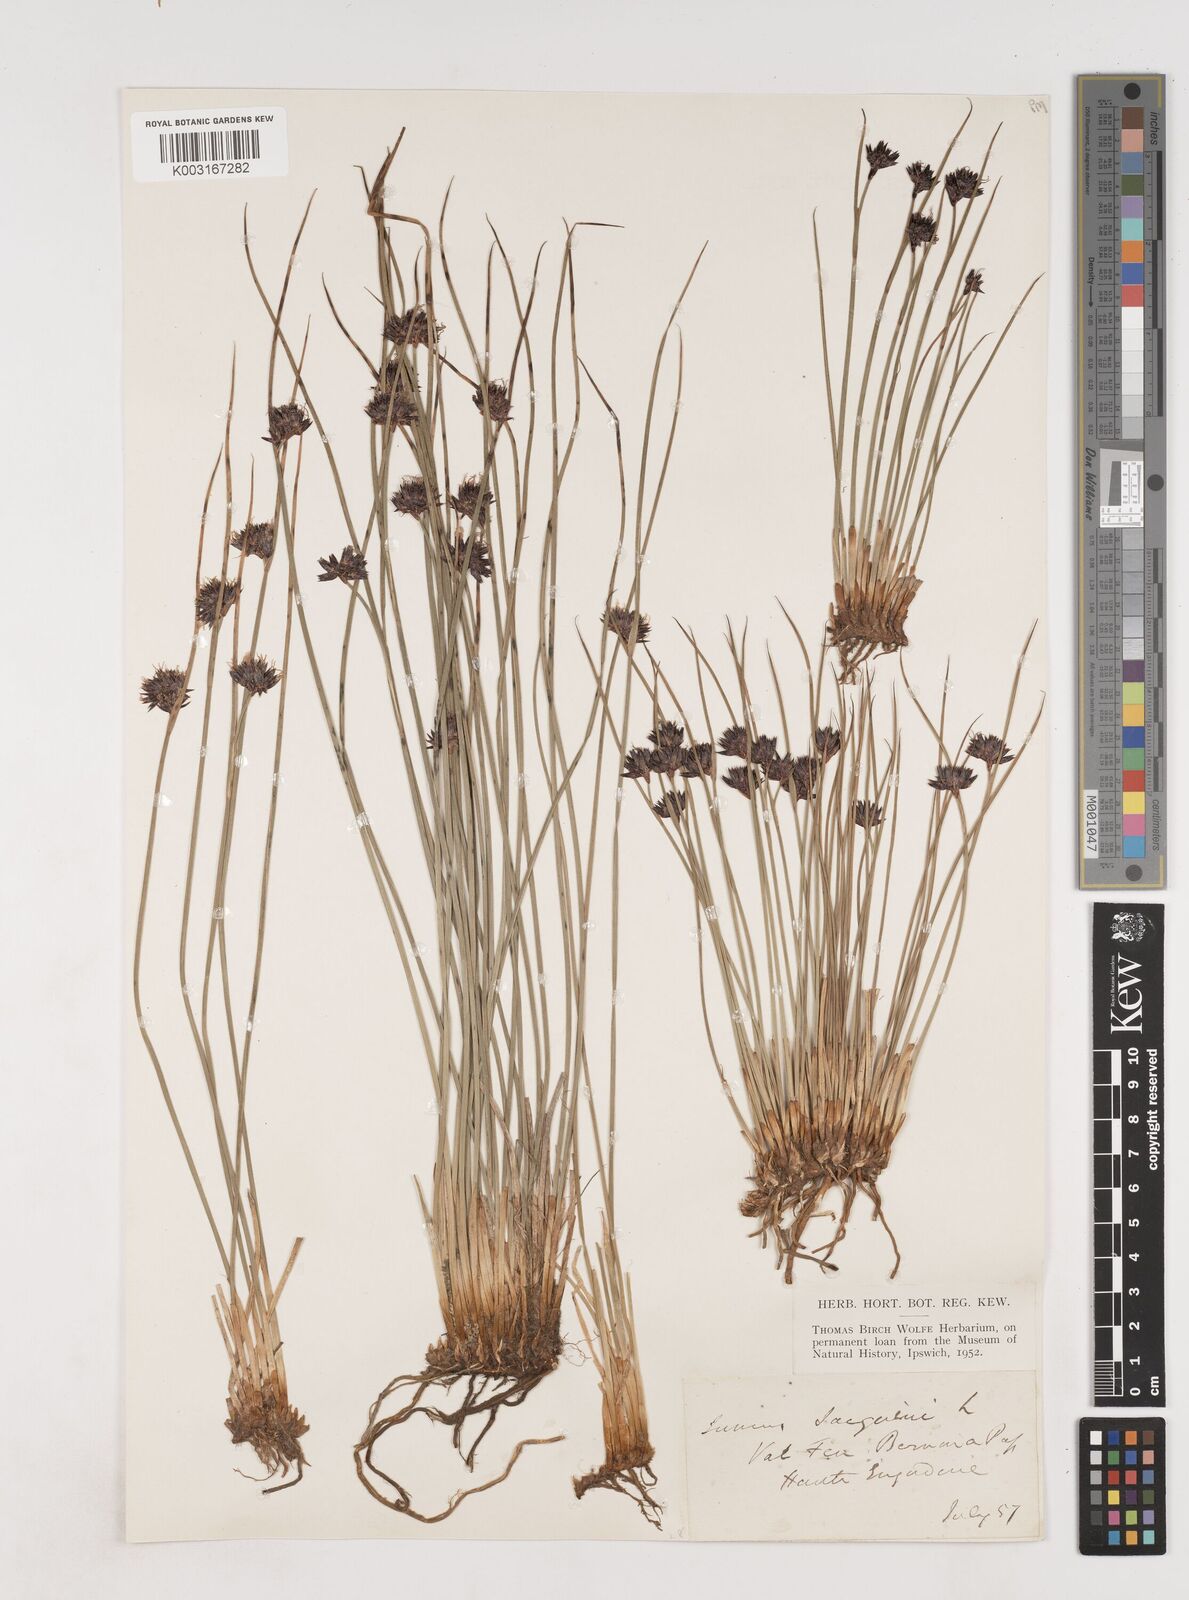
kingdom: Plantae
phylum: Tracheophyta
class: Liliopsida
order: Poales
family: Juncaceae
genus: Juncus
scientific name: Juncus jacquinii
